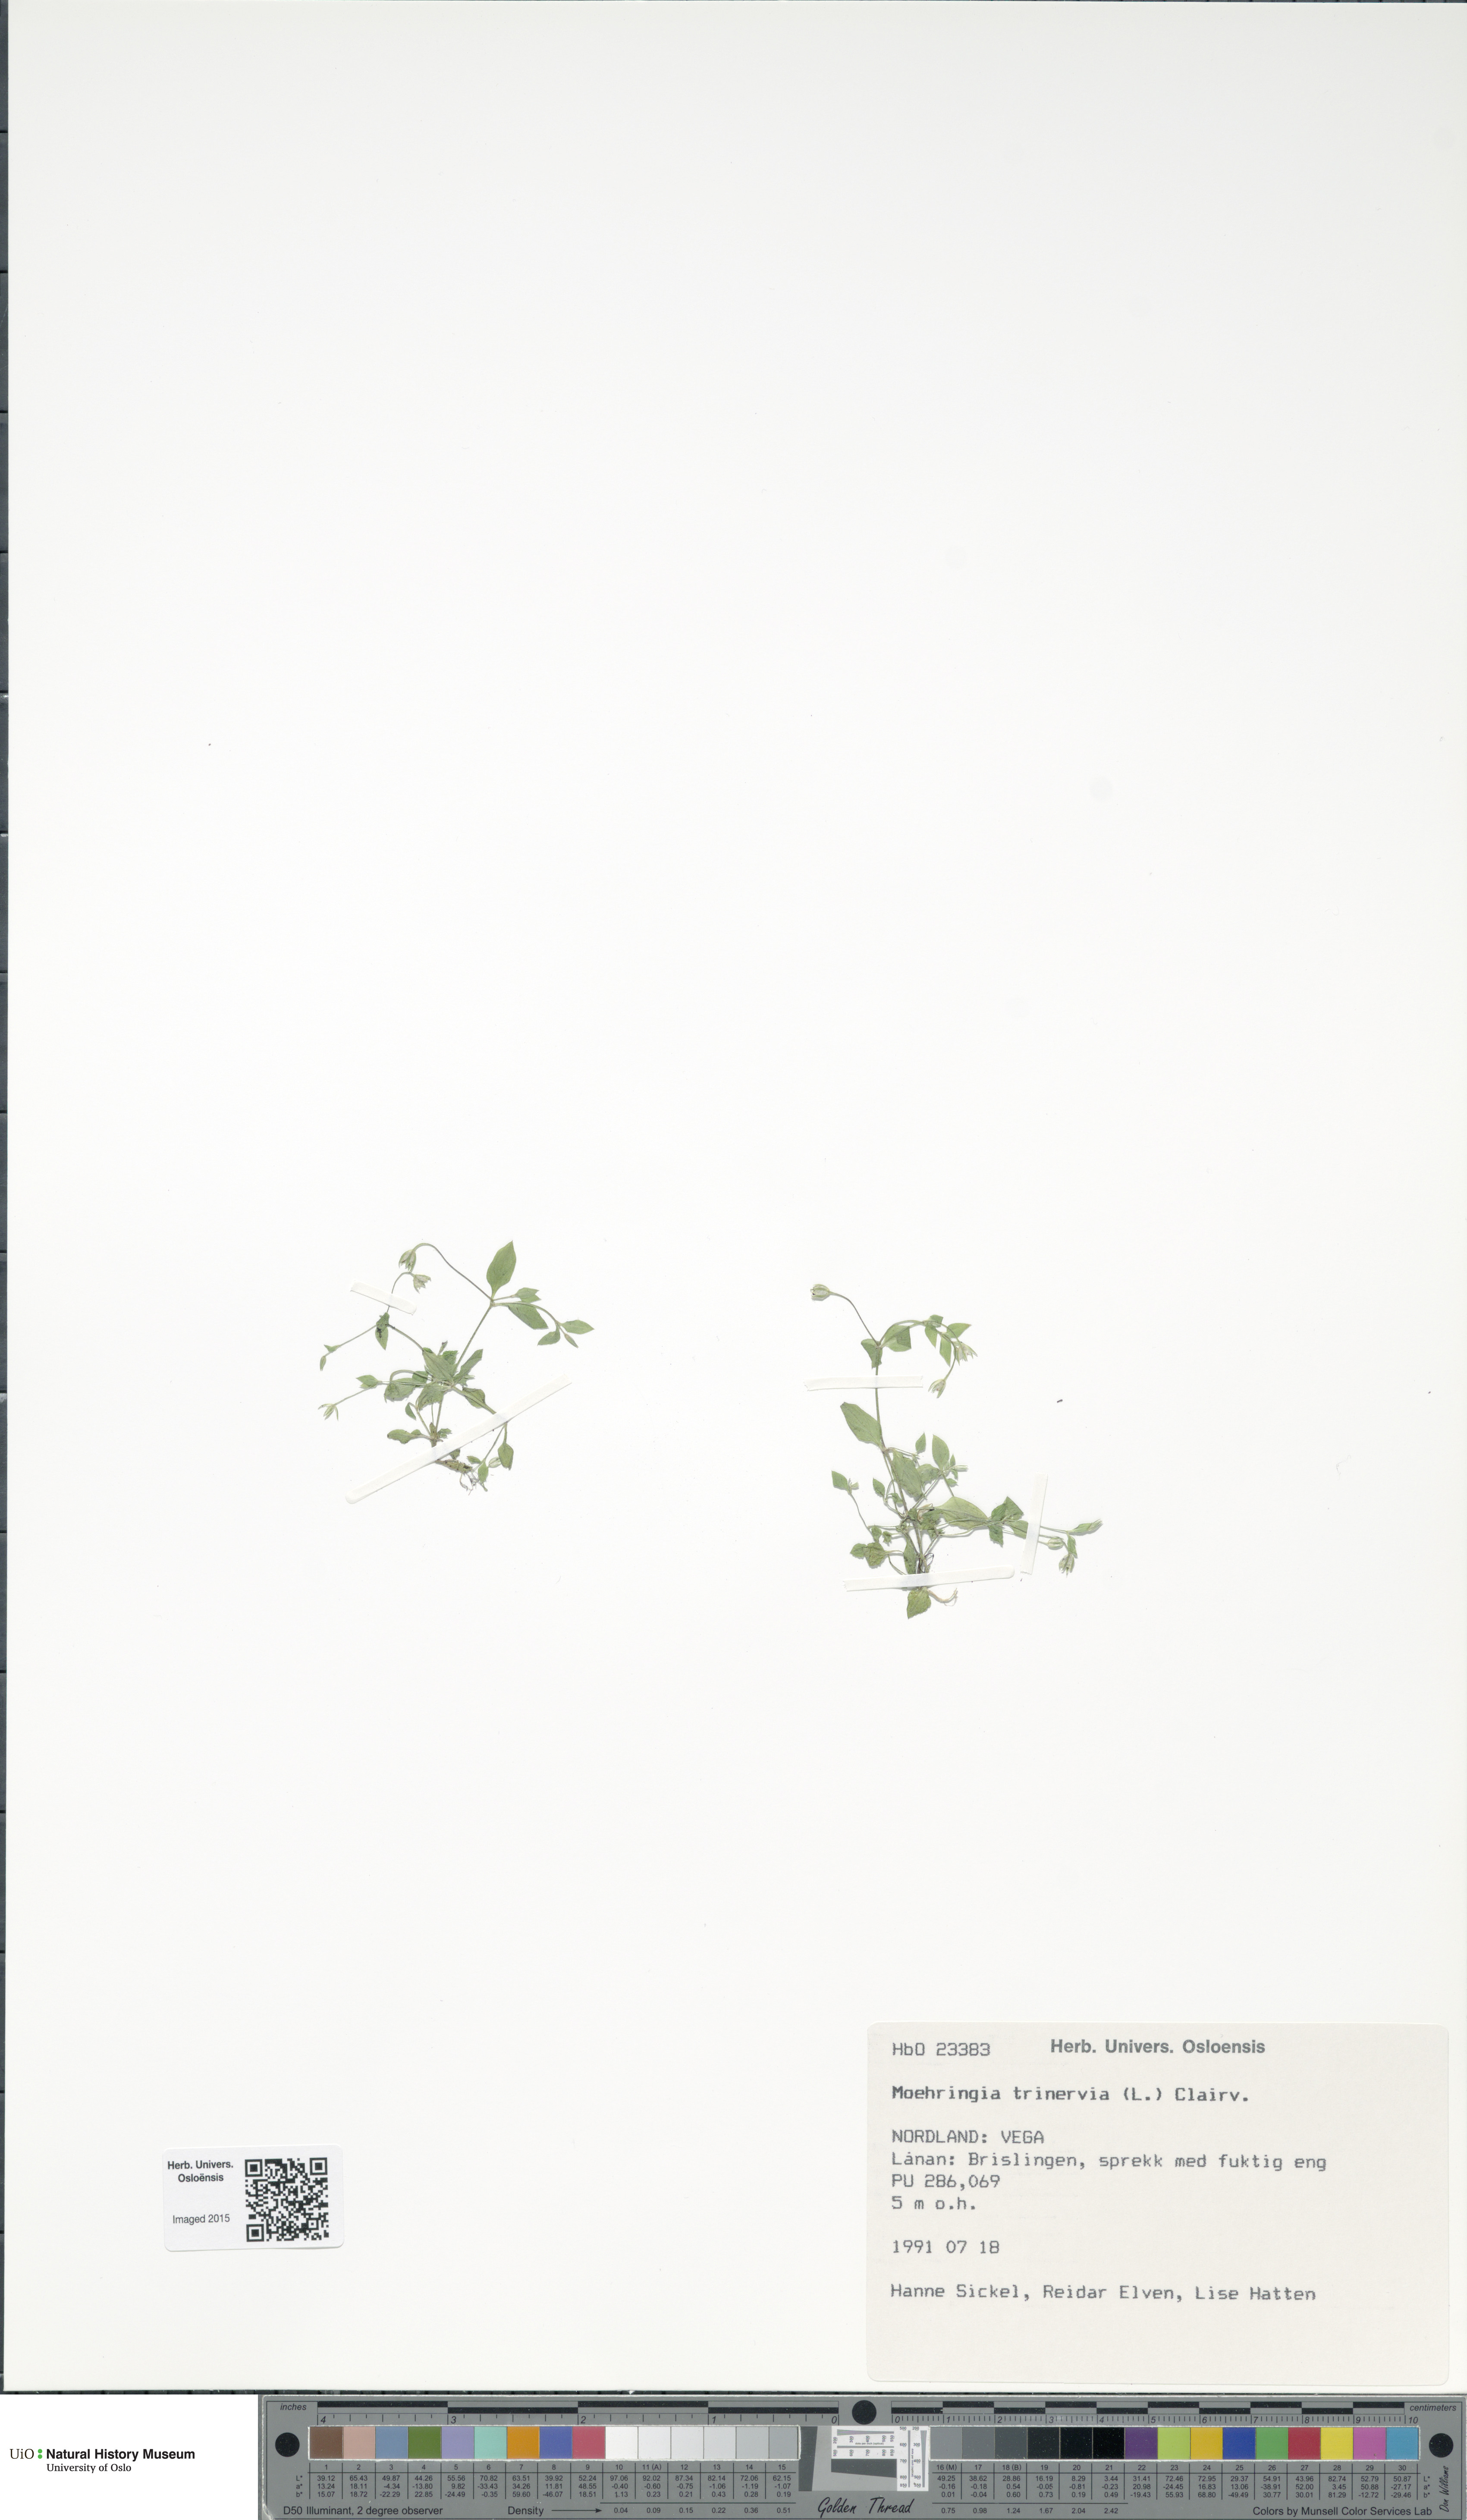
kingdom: Plantae
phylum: Tracheophyta
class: Magnoliopsida
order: Caryophyllales
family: Caryophyllaceae
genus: Moehringia
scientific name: Moehringia trinervia
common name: Three-nerved sandwort
